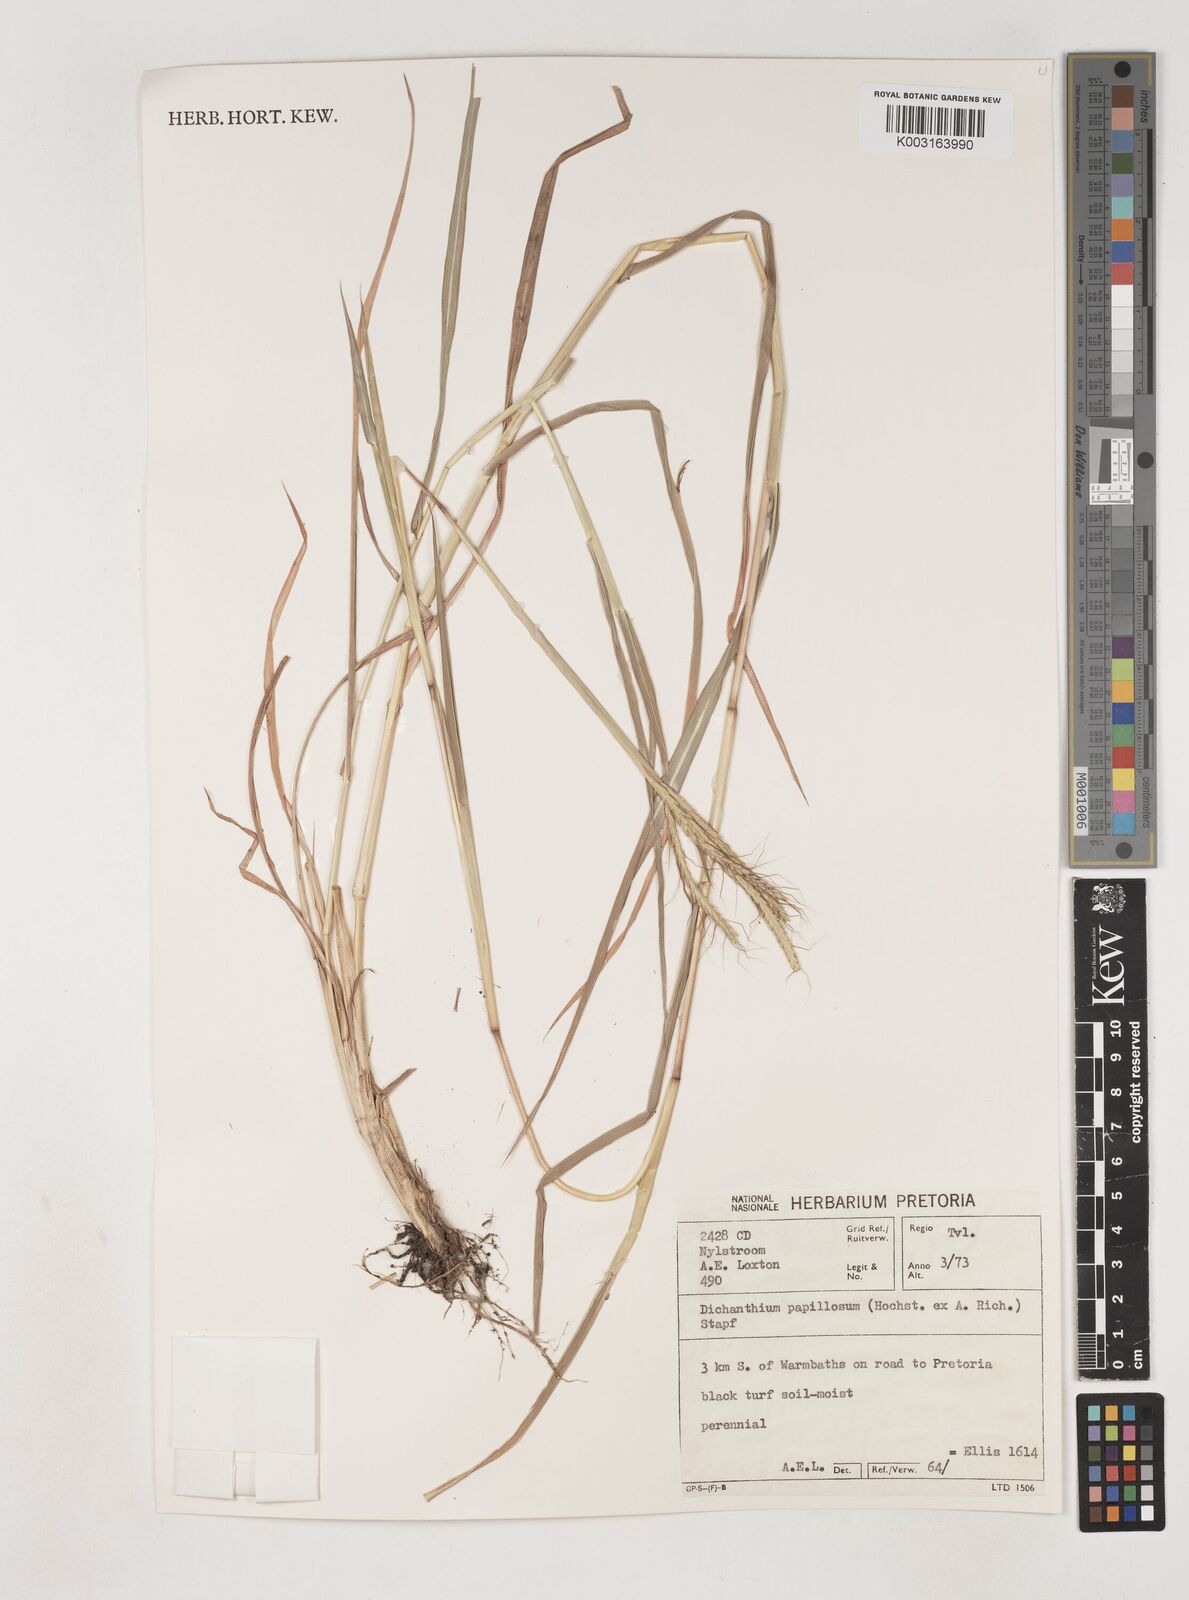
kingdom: Plantae
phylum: Tracheophyta
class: Liliopsida
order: Poales
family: Poaceae
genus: Dichanthium
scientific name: Dichanthium annulatum
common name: Kleberg's bluestem
